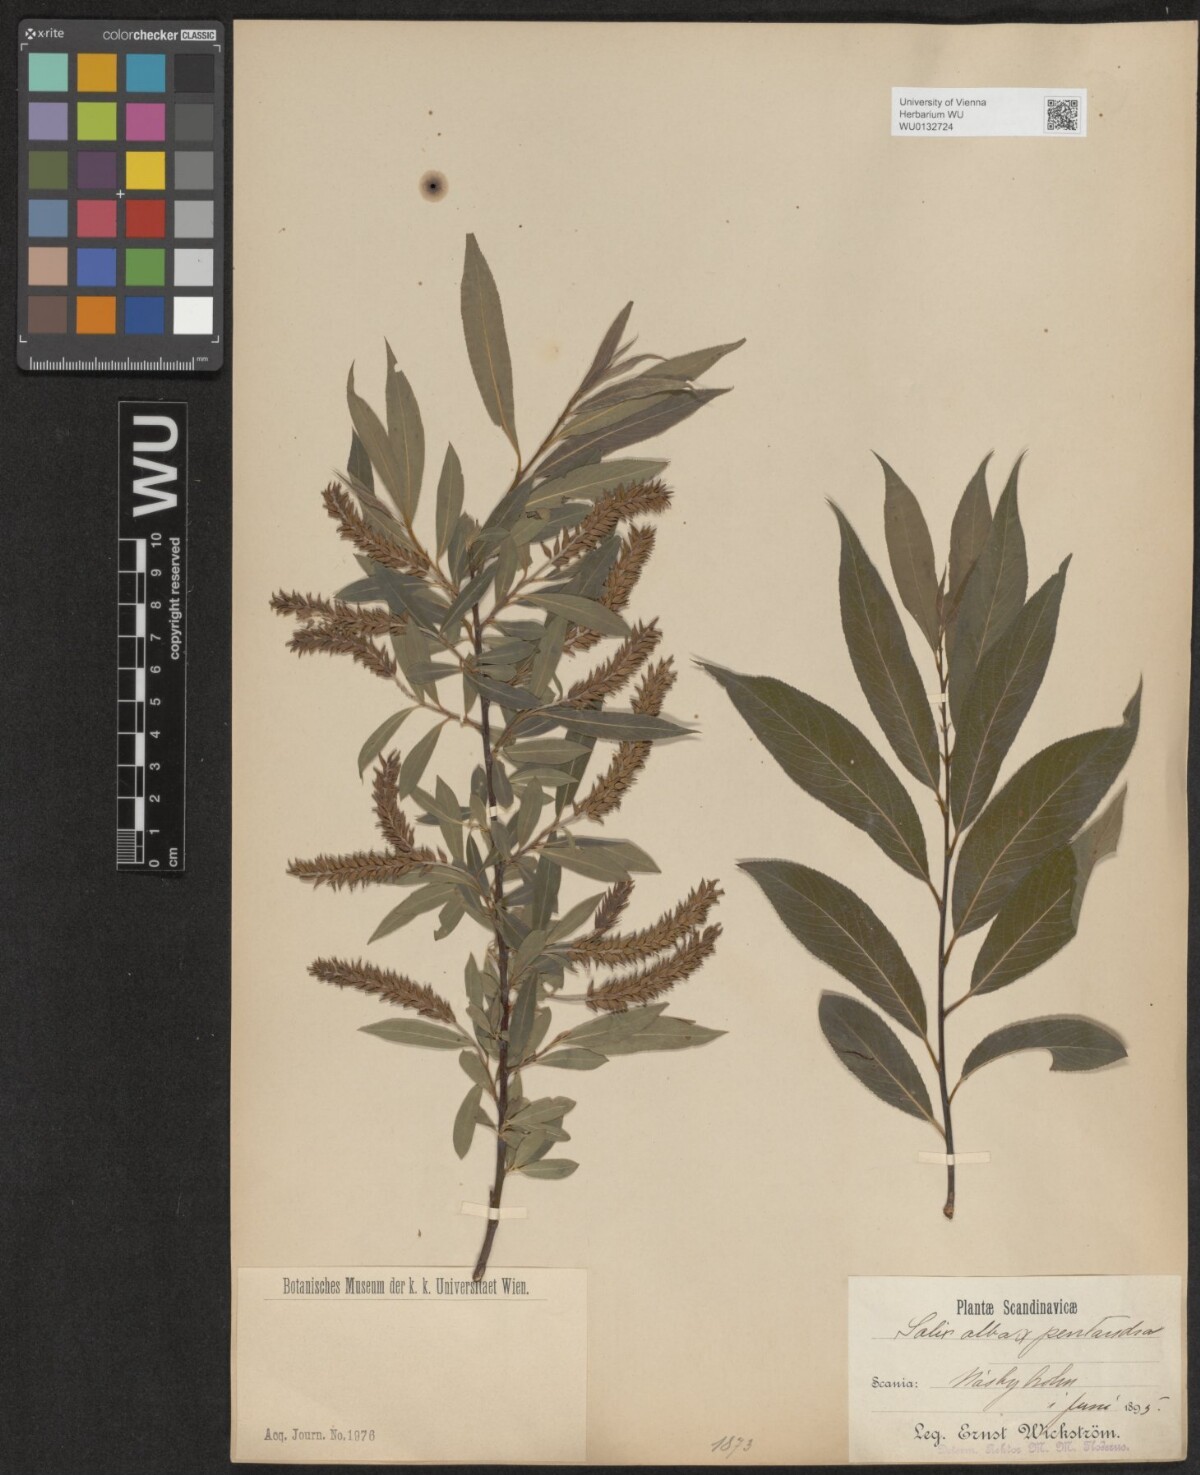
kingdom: Plantae
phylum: Tracheophyta
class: Magnoliopsida
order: Malpighiales
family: Salicaceae
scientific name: Salicaceae
